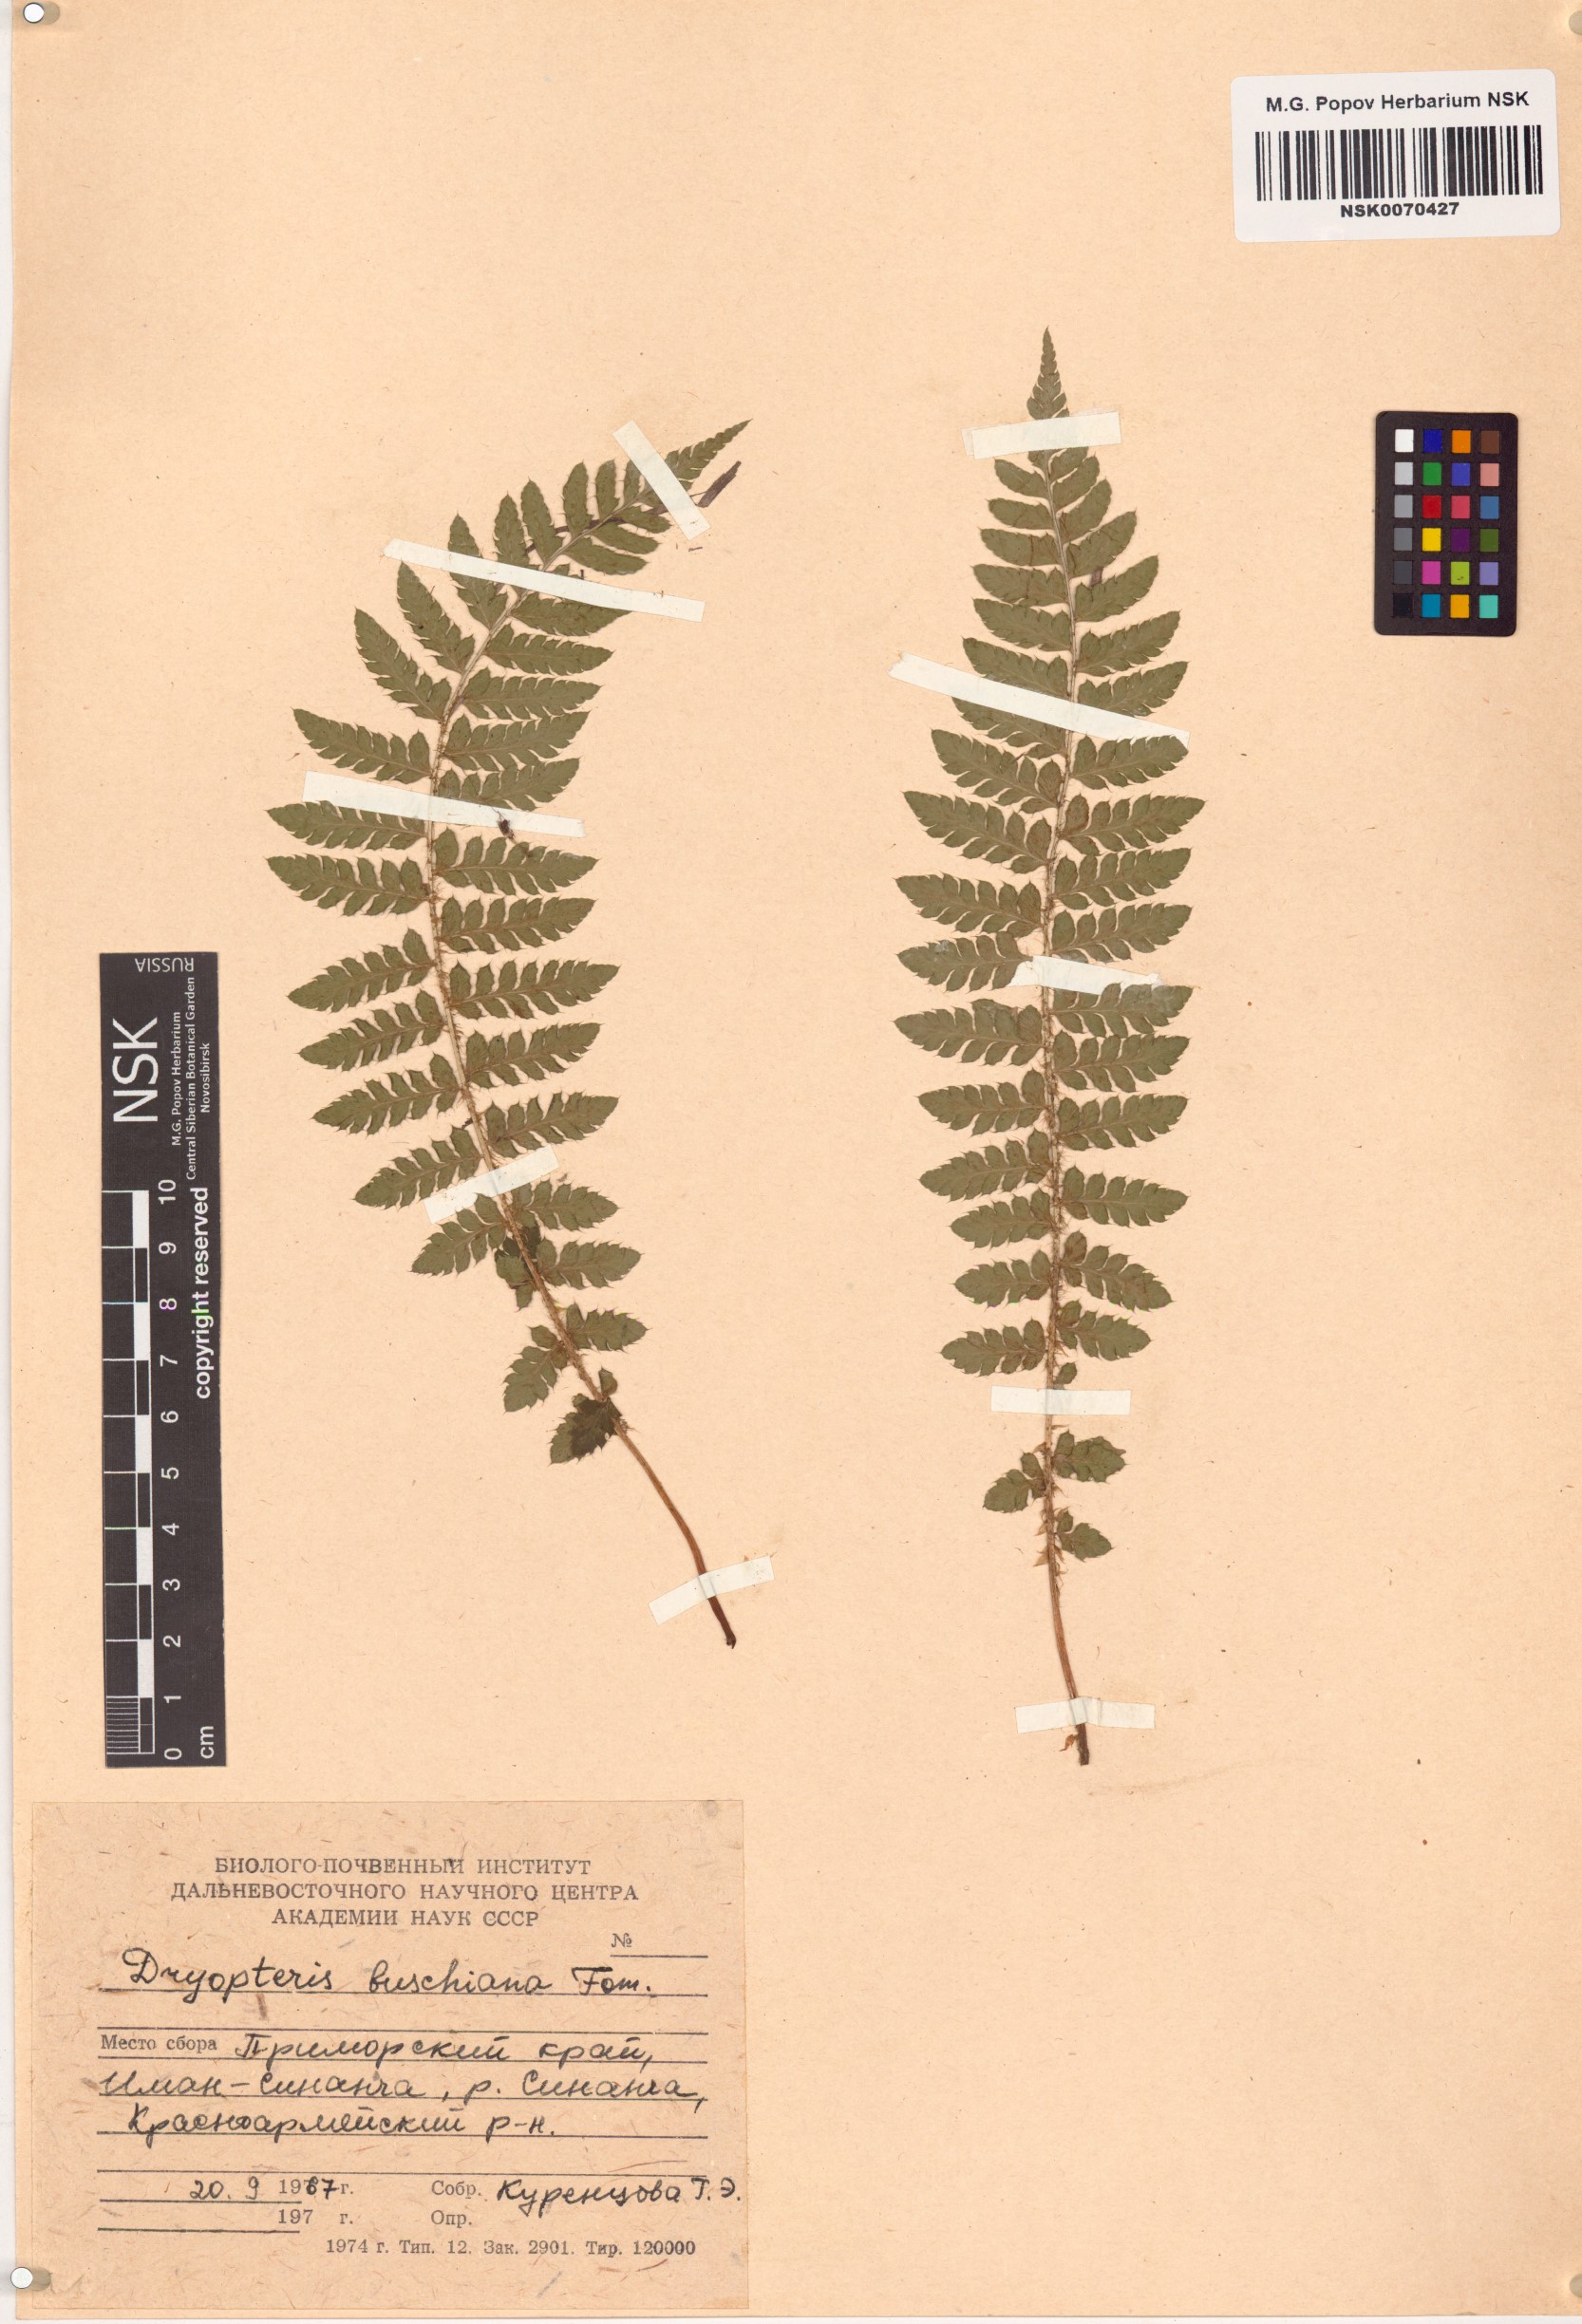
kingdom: Plantae
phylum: Tracheophyta
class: Polypodiopsida
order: Polypodiales
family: Dryopteridaceae
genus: Dryopteris
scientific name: Dryopteris crassirhizoma
